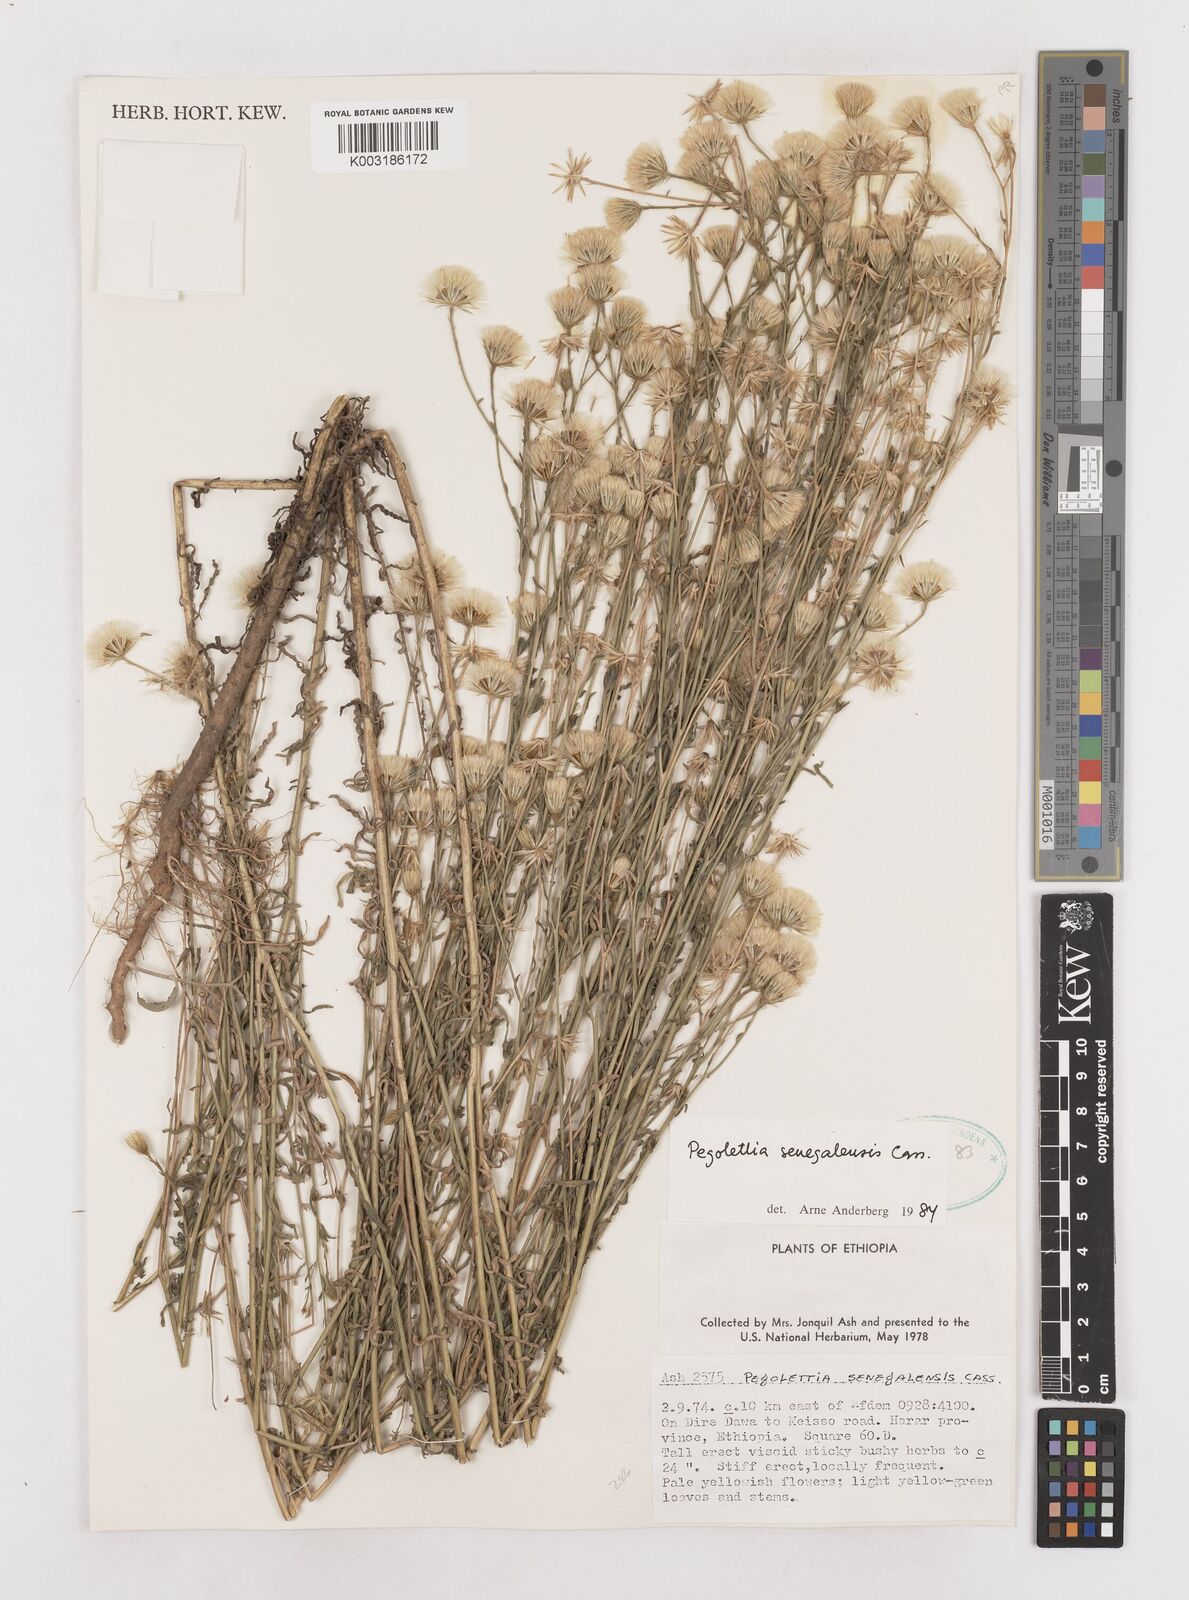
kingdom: Plantae
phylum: Tracheophyta
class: Magnoliopsida
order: Asterales
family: Asteraceae
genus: Pegolettia
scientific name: Pegolettia senegalensis
